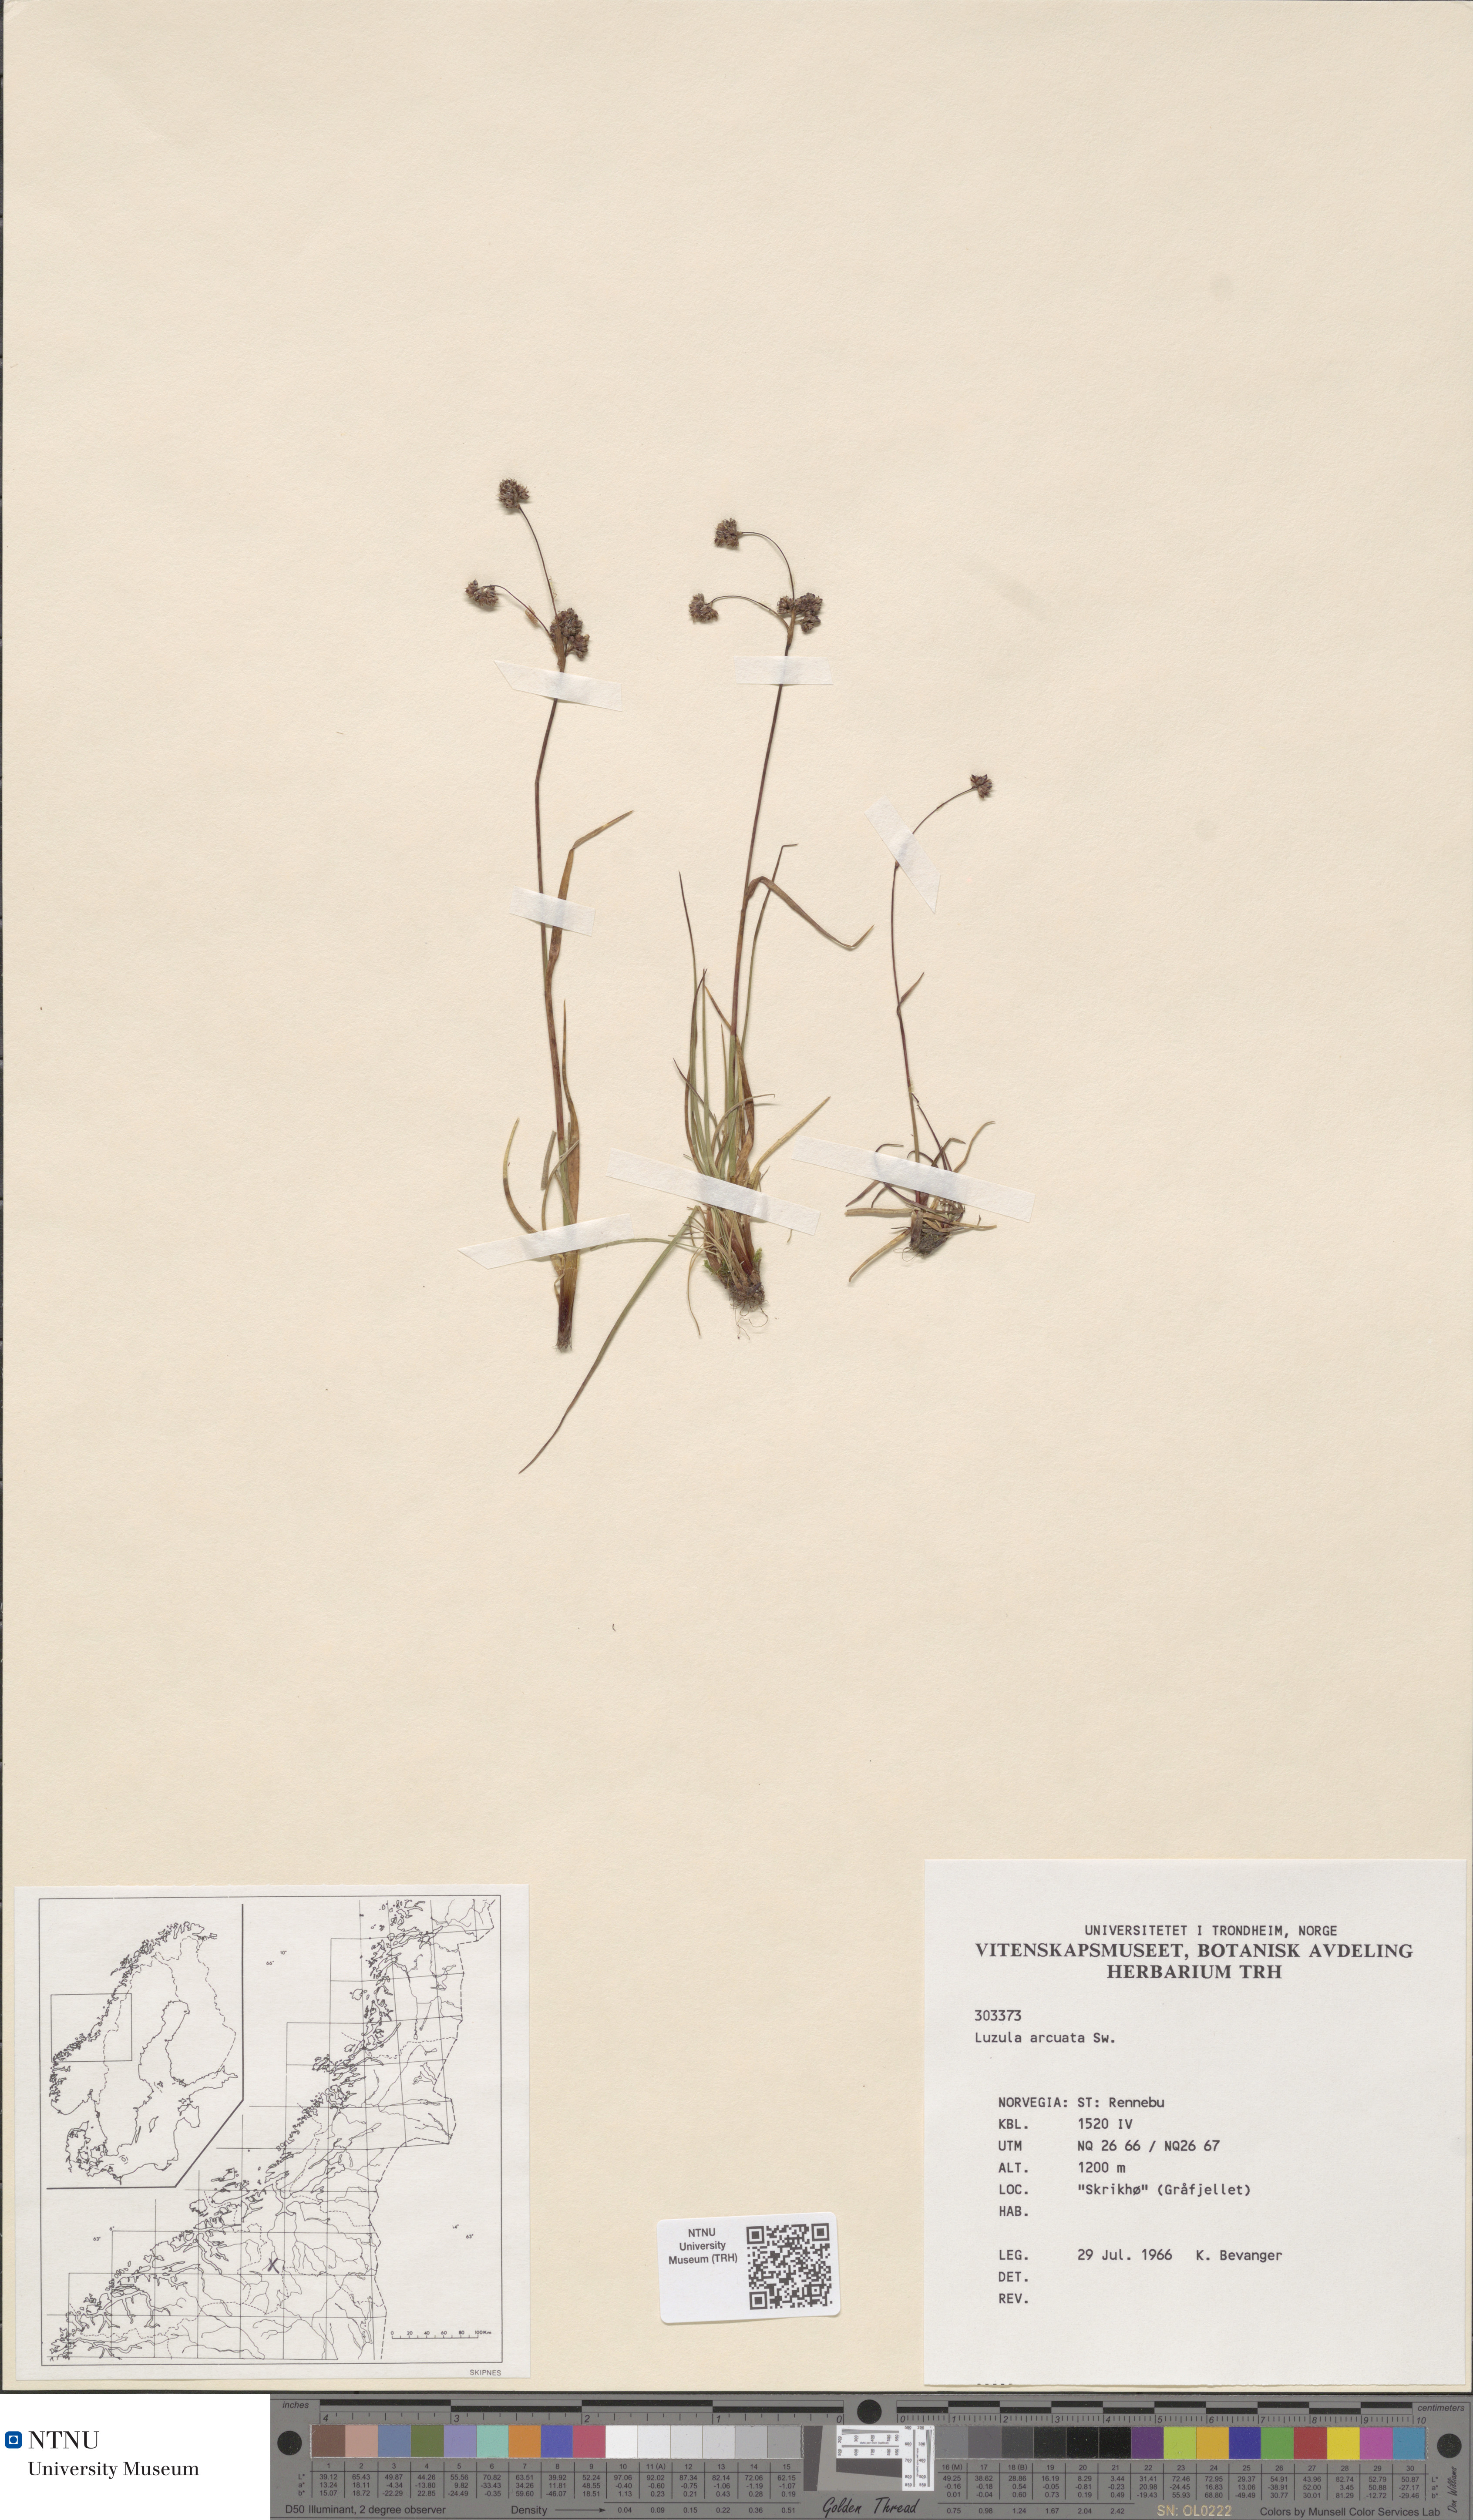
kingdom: Plantae
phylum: Tracheophyta
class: Liliopsida
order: Poales
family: Juncaceae
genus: Luzula
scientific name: Luzula arcuata
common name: Curved wood-rush
